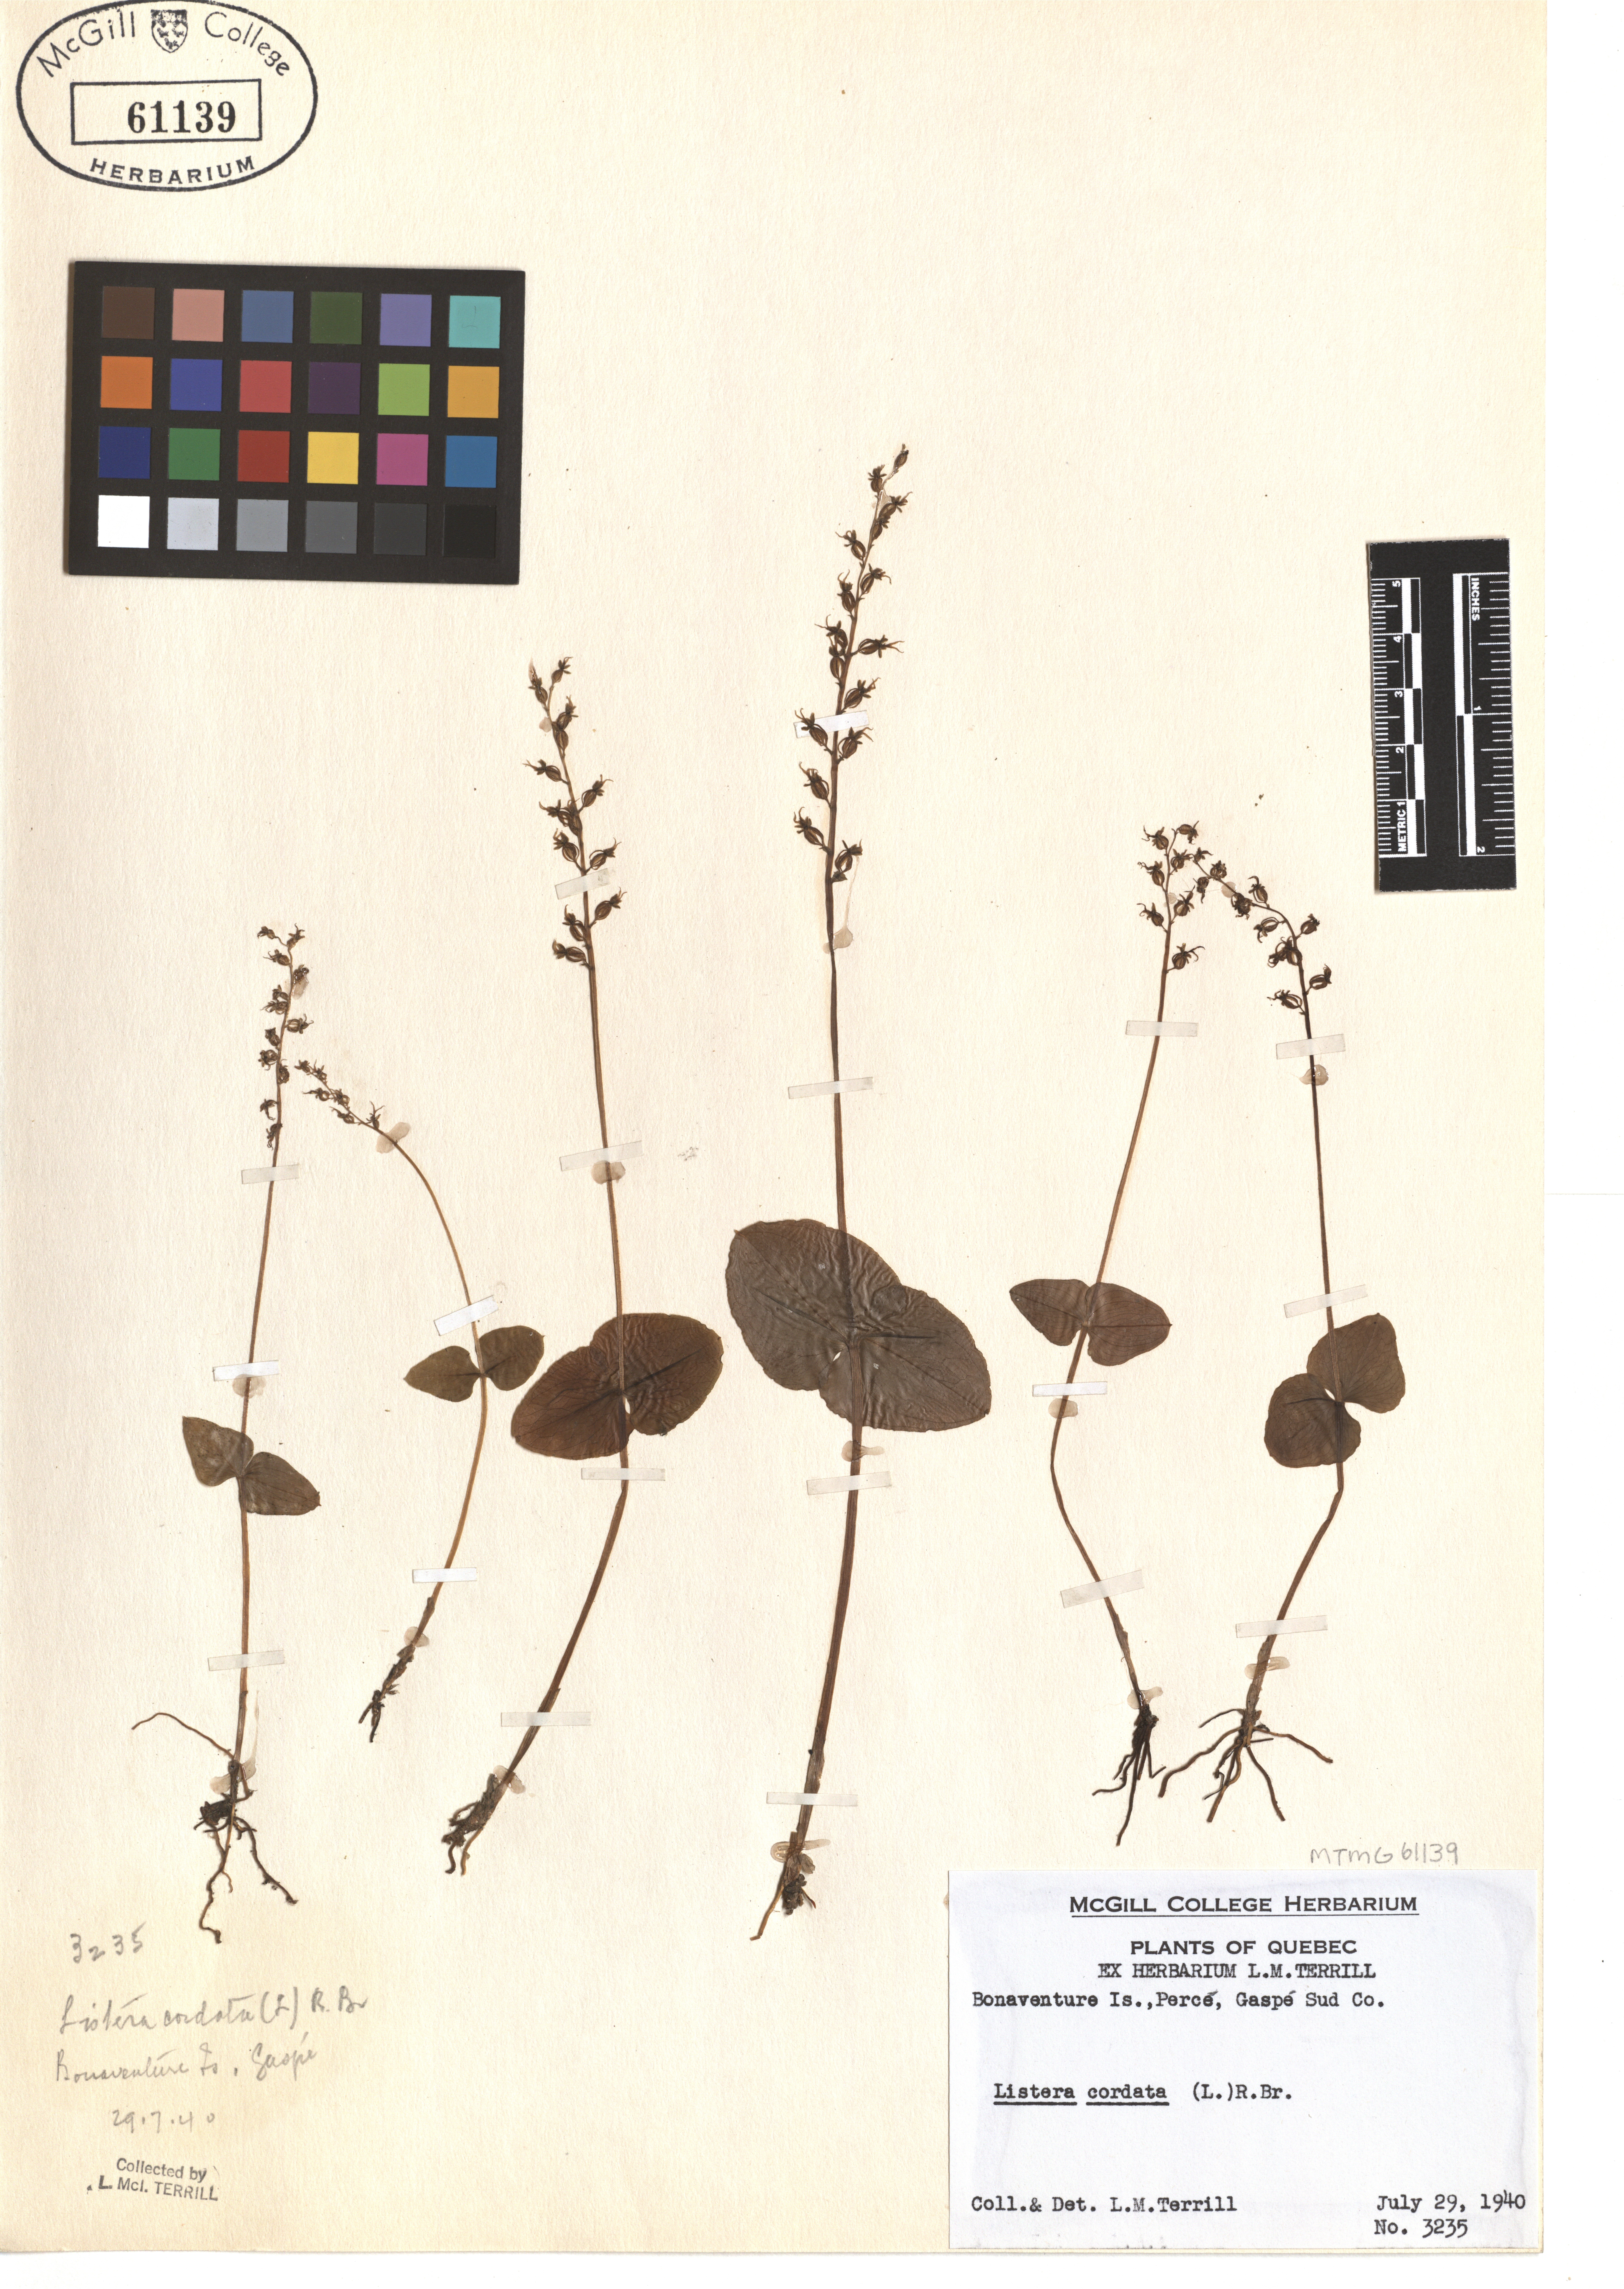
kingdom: Plantae
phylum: Tracheophyta
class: Liliopsida
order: Asparagales
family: Orchidaceae
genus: Neottia
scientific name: Neottia cordata
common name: Lesser twayblade
